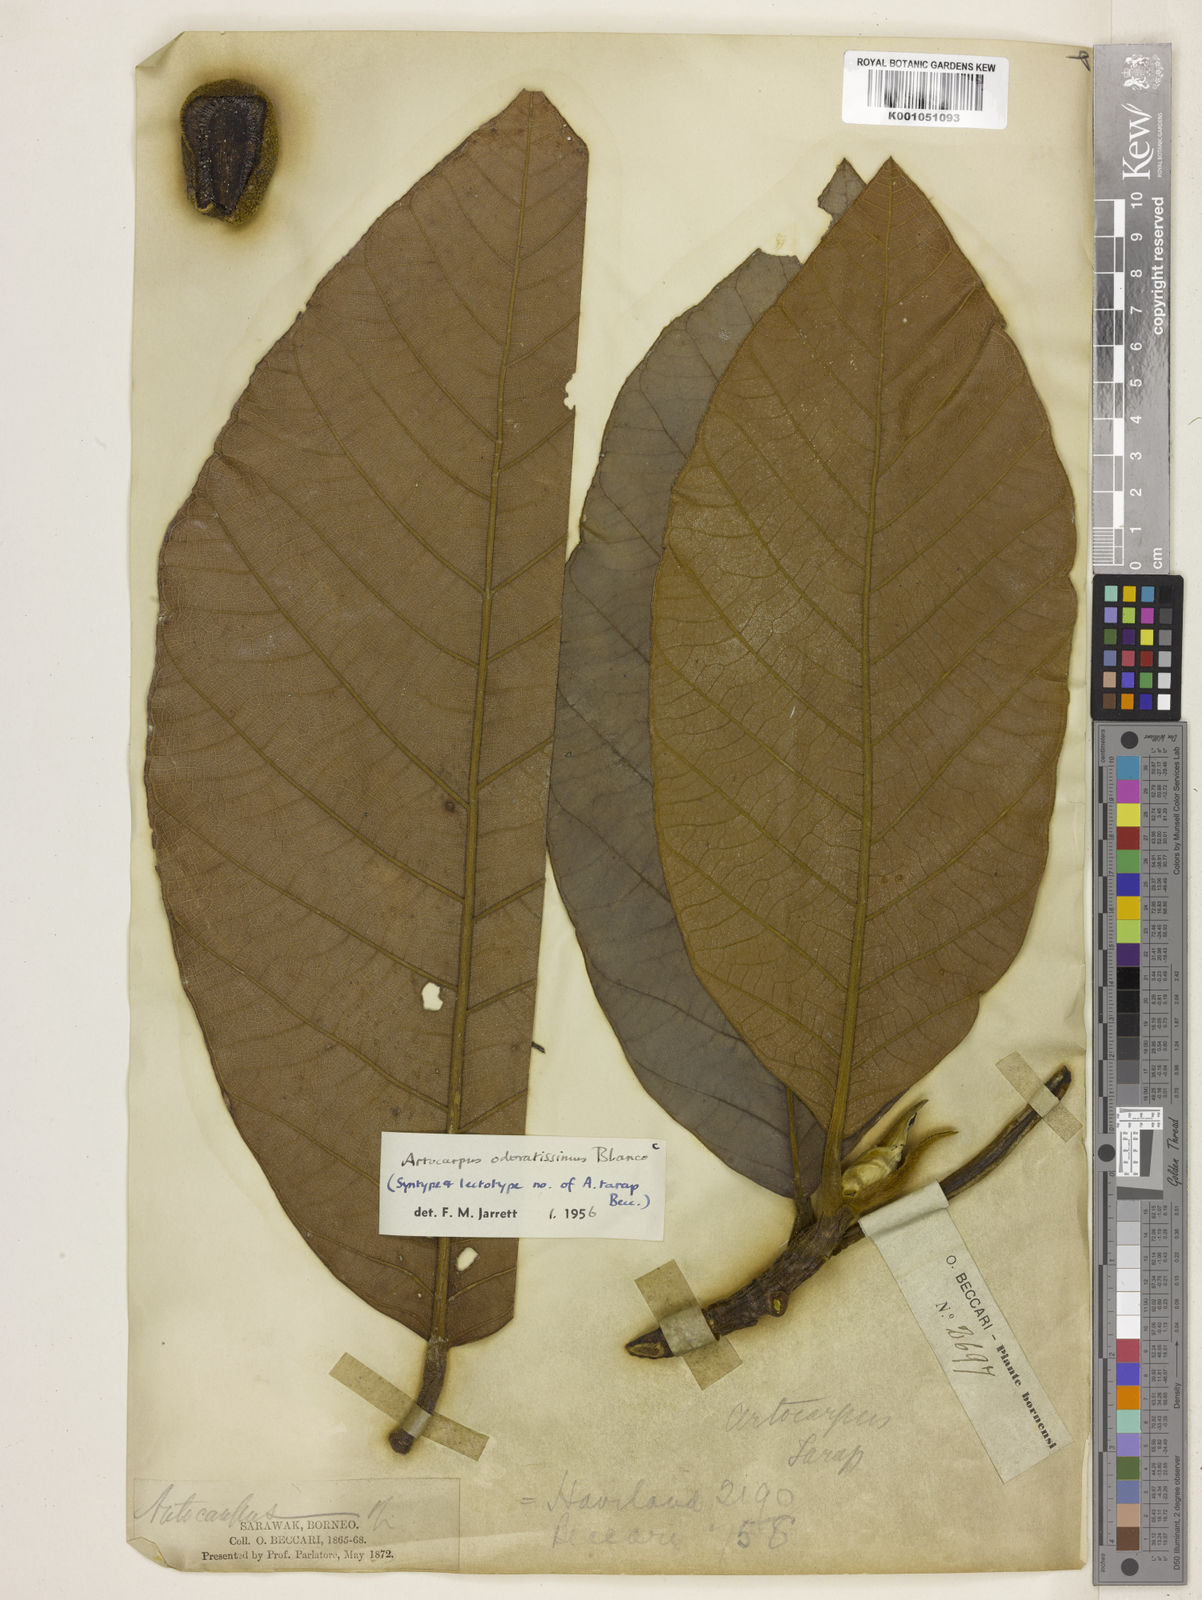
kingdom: Plantae
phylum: Tracheophyta
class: Magnoliopsida
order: Rosales
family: Moraceae
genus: Artocarpus
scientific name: Artocarpus odoratissimus
